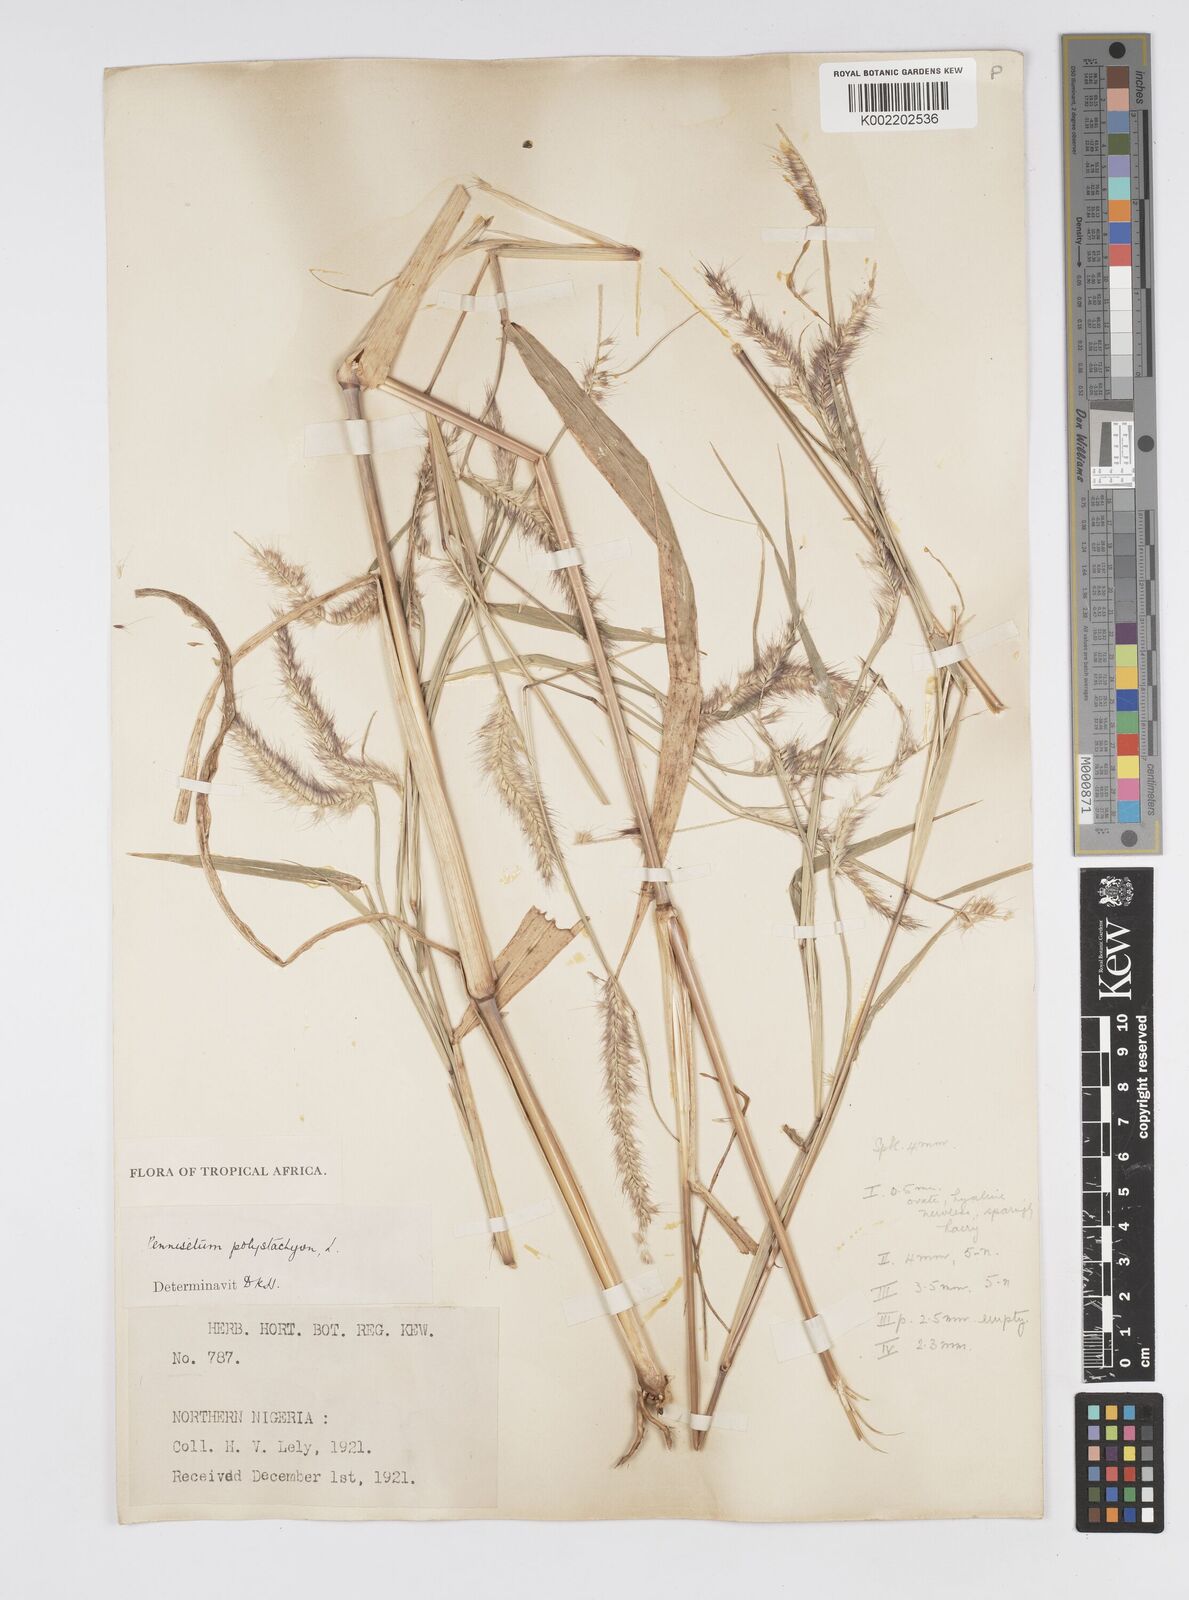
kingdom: Plantae
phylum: Tracheophyta
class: Liliopsida
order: Poales
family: Poaceae
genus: Setaria
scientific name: Setaria parviflora
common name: Knotroot bristle-grass
